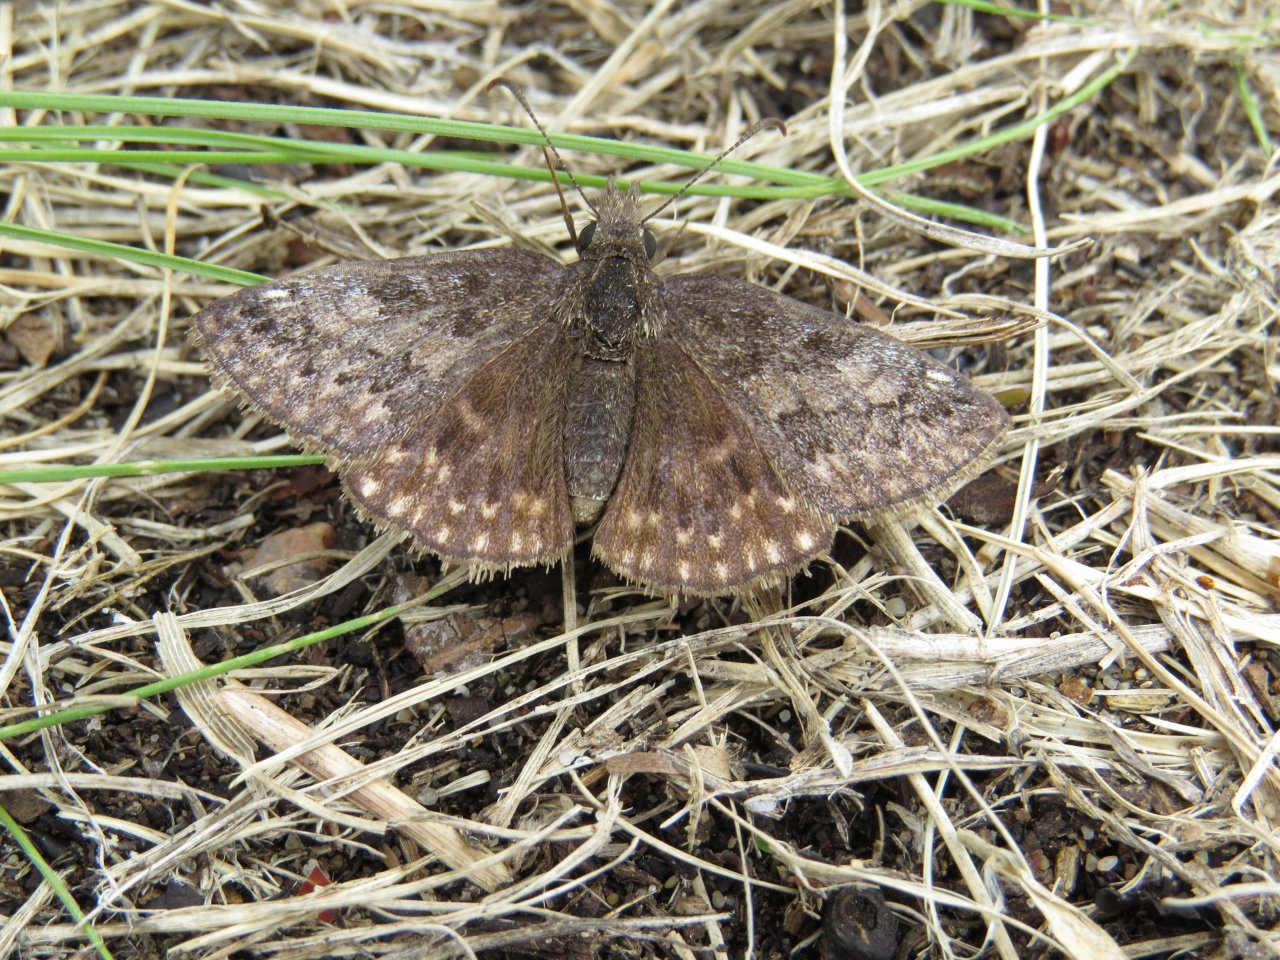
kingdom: Animalia
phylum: Arthropoda
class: Insecta
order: Lepidoptera
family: Hesperiidae
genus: Erynnis
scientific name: Erynnis icelus
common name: Dreamy Duskywing
